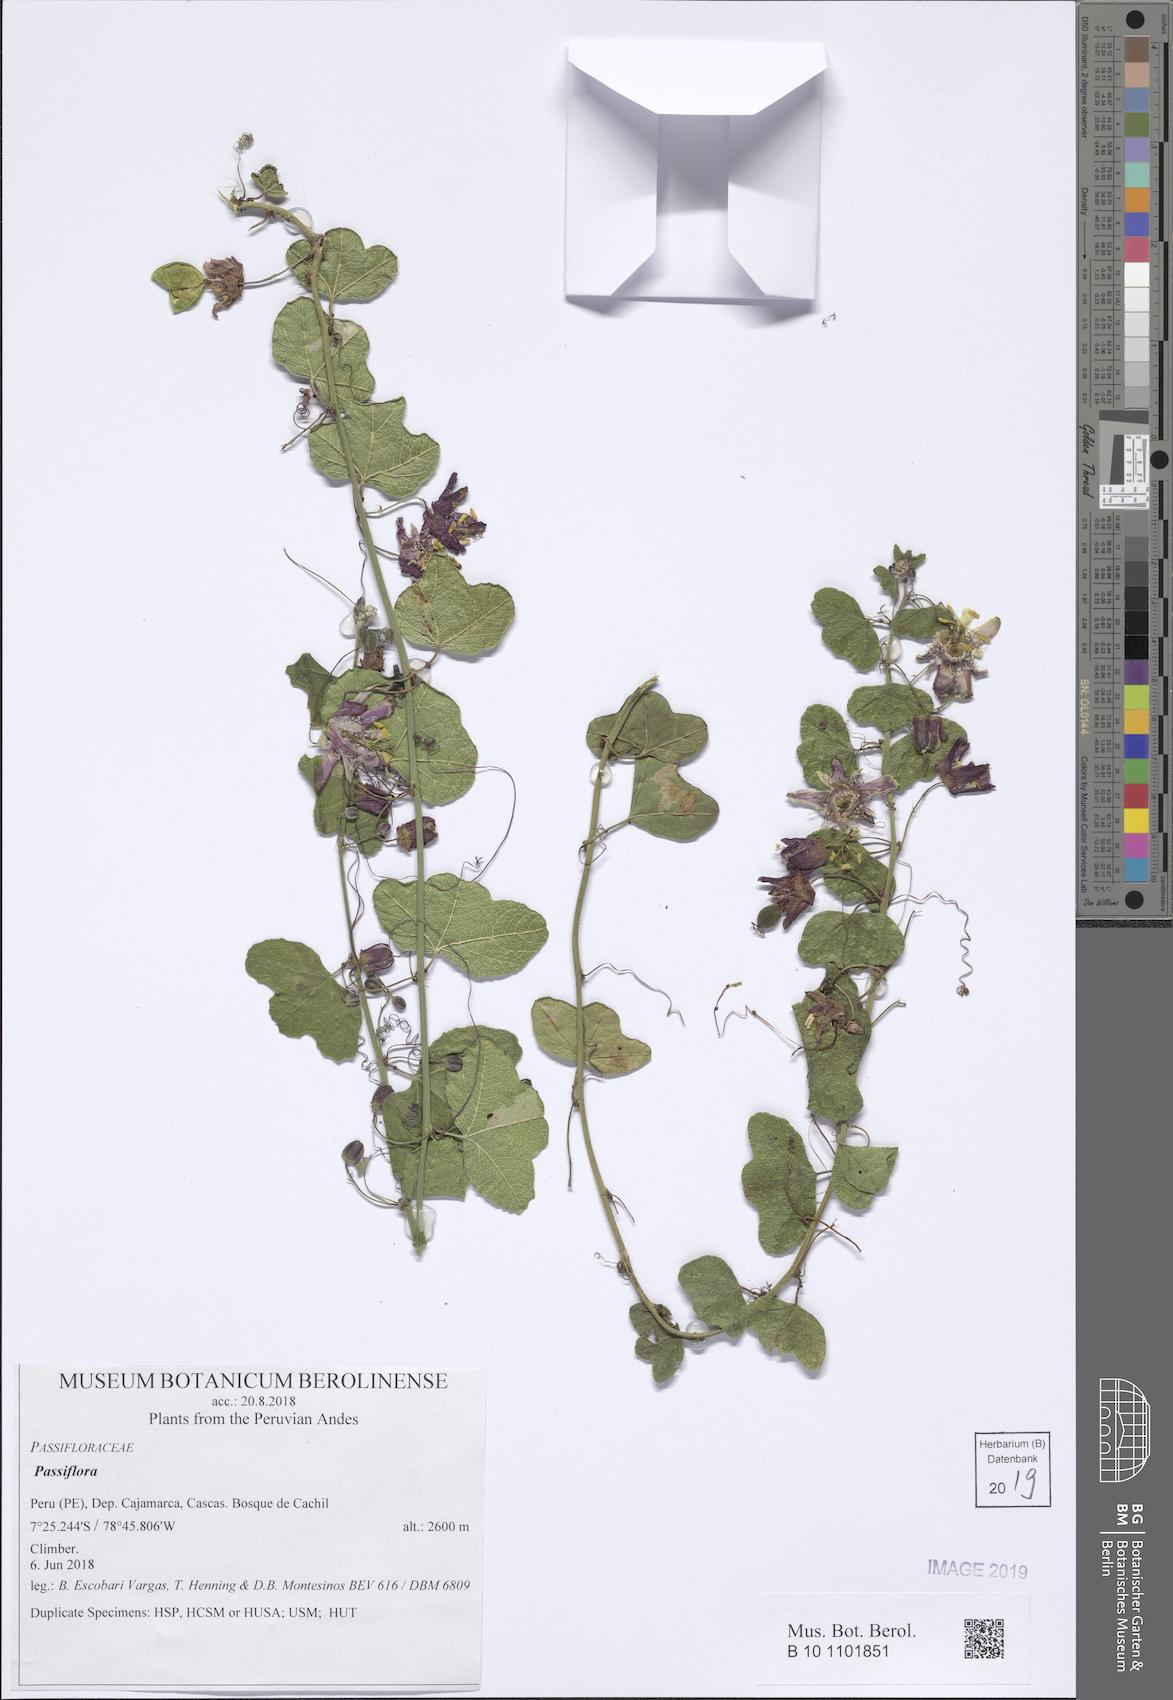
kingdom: Plantae
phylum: Tracheophyta
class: Magnoliopsida
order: Malpighiales
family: Passifloraceae
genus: Passiflora
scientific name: Passiflora sagasteguii
